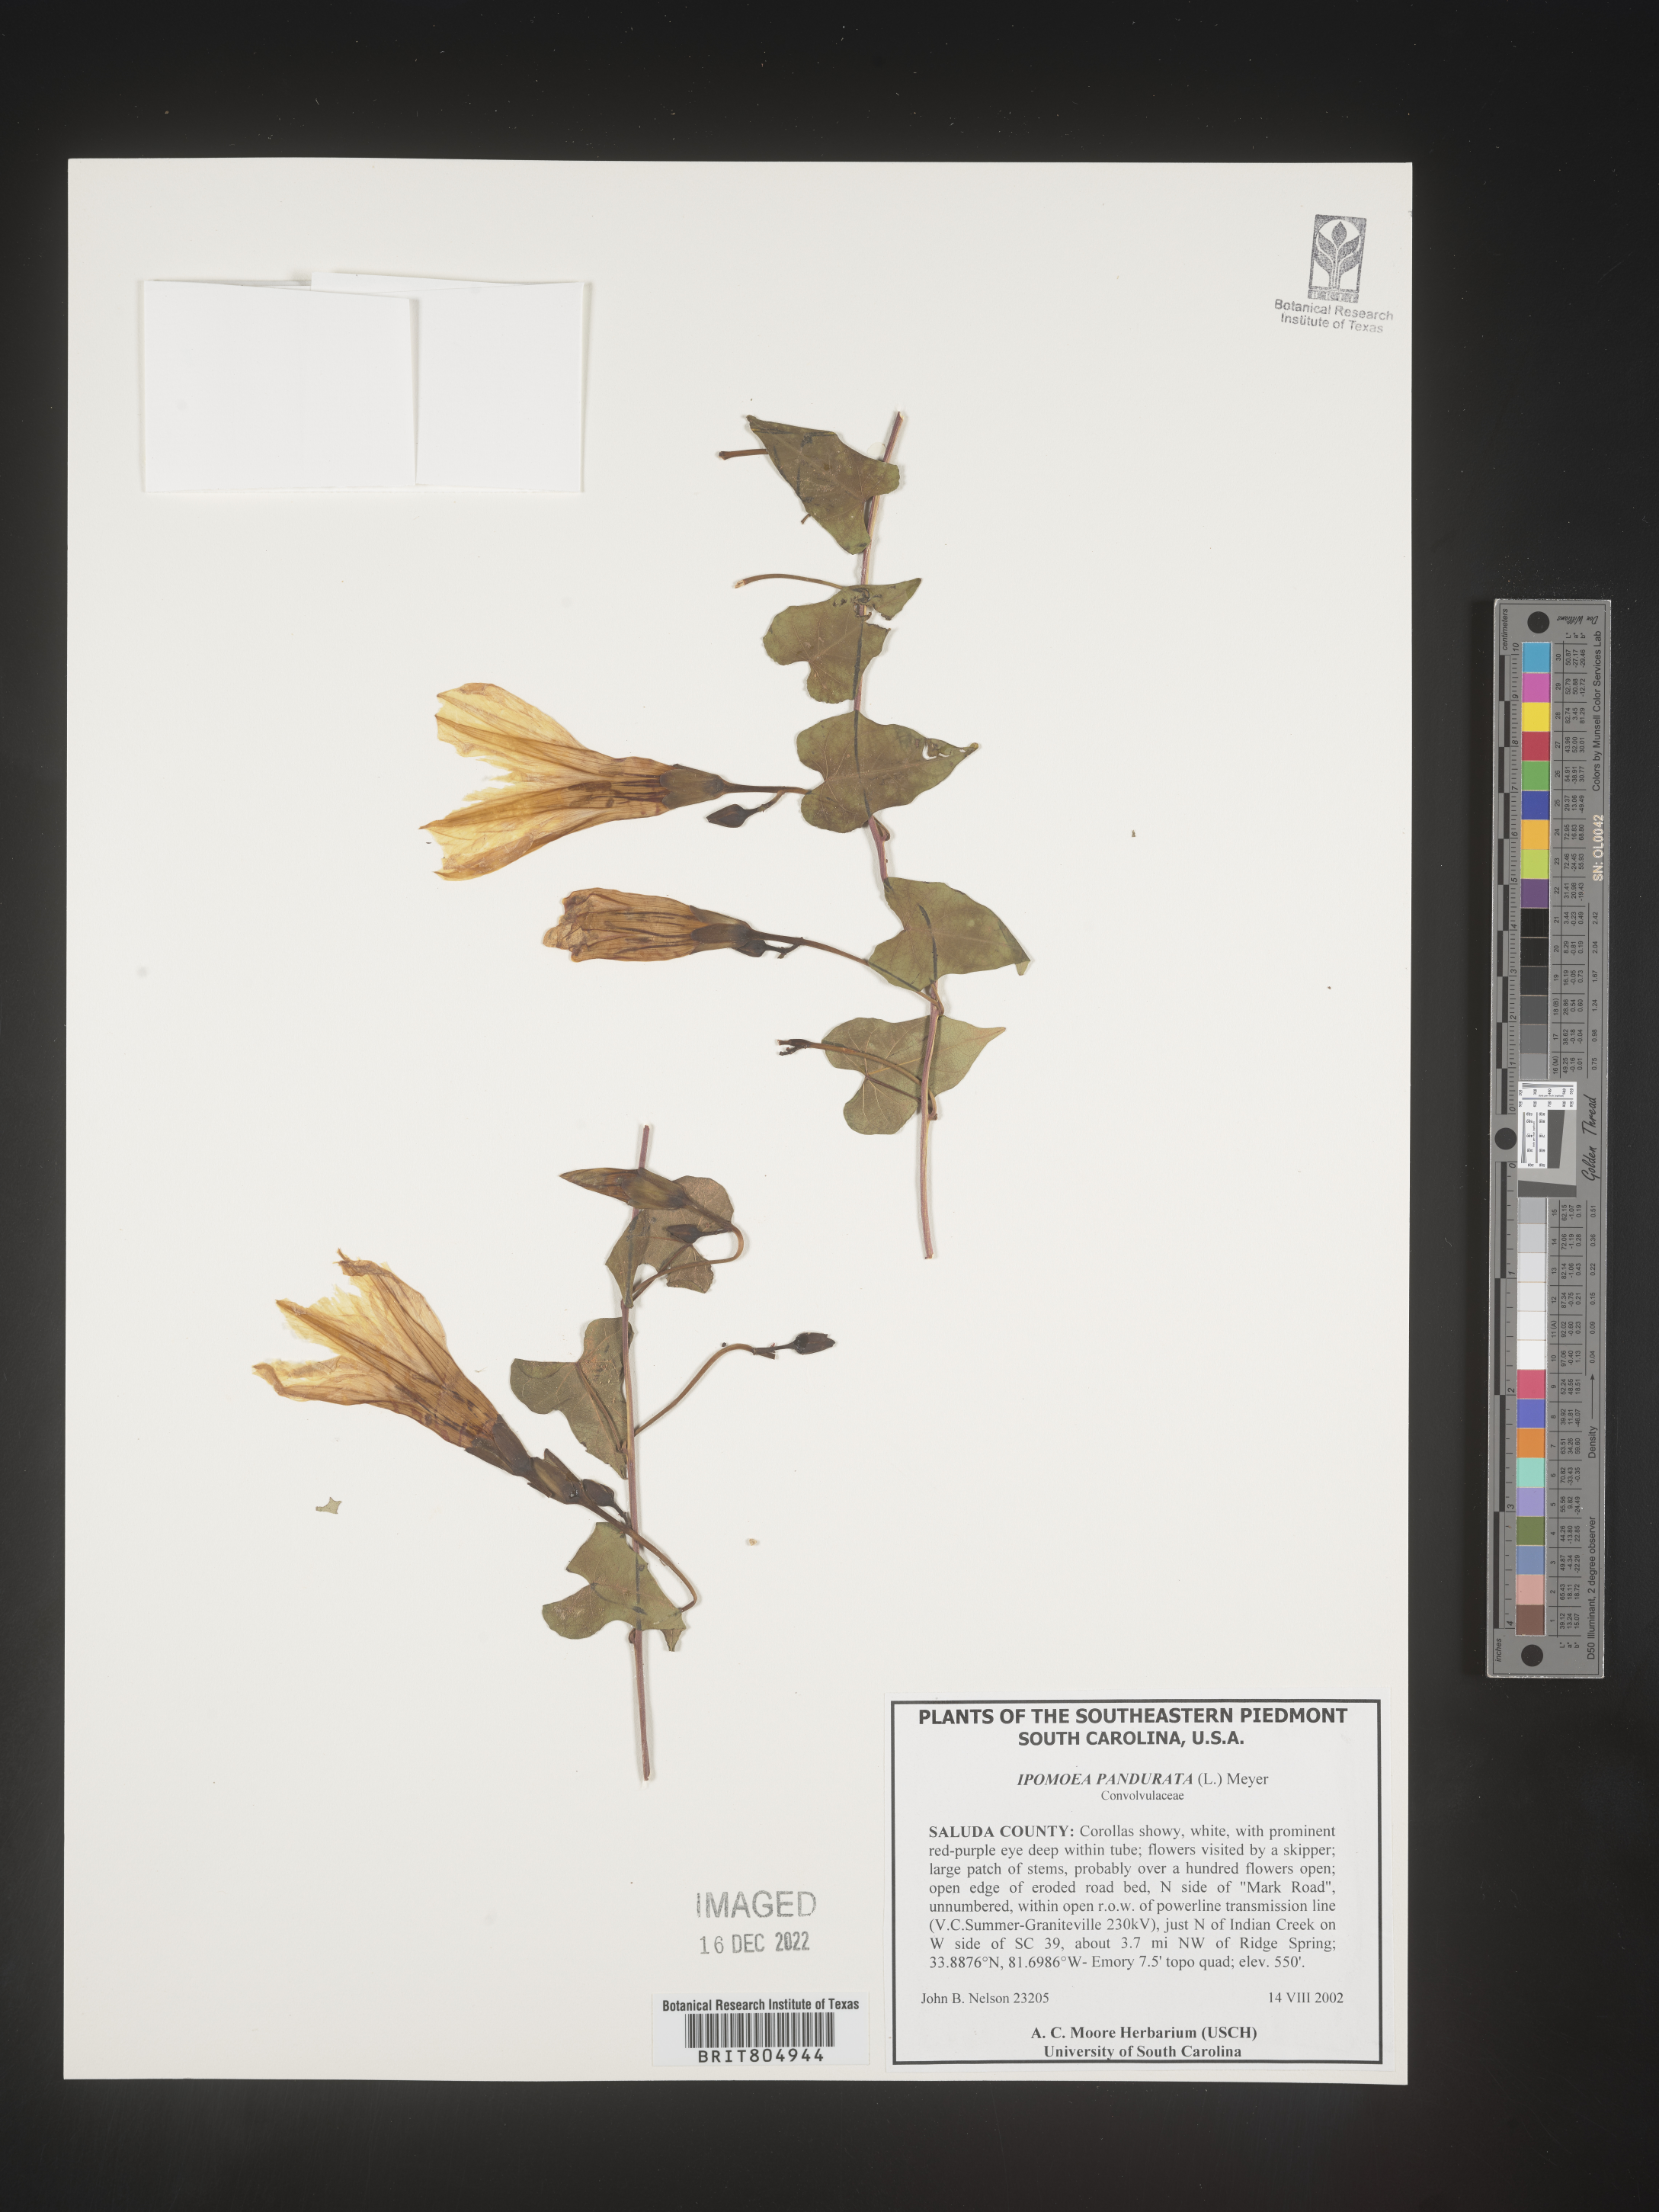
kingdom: Plantae
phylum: Tracheophyta
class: Magnoliopsida
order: Solanales
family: Convolvulaceae
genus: Ipomoea
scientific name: Ipomoea pandurata
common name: Man-of-the-earth
